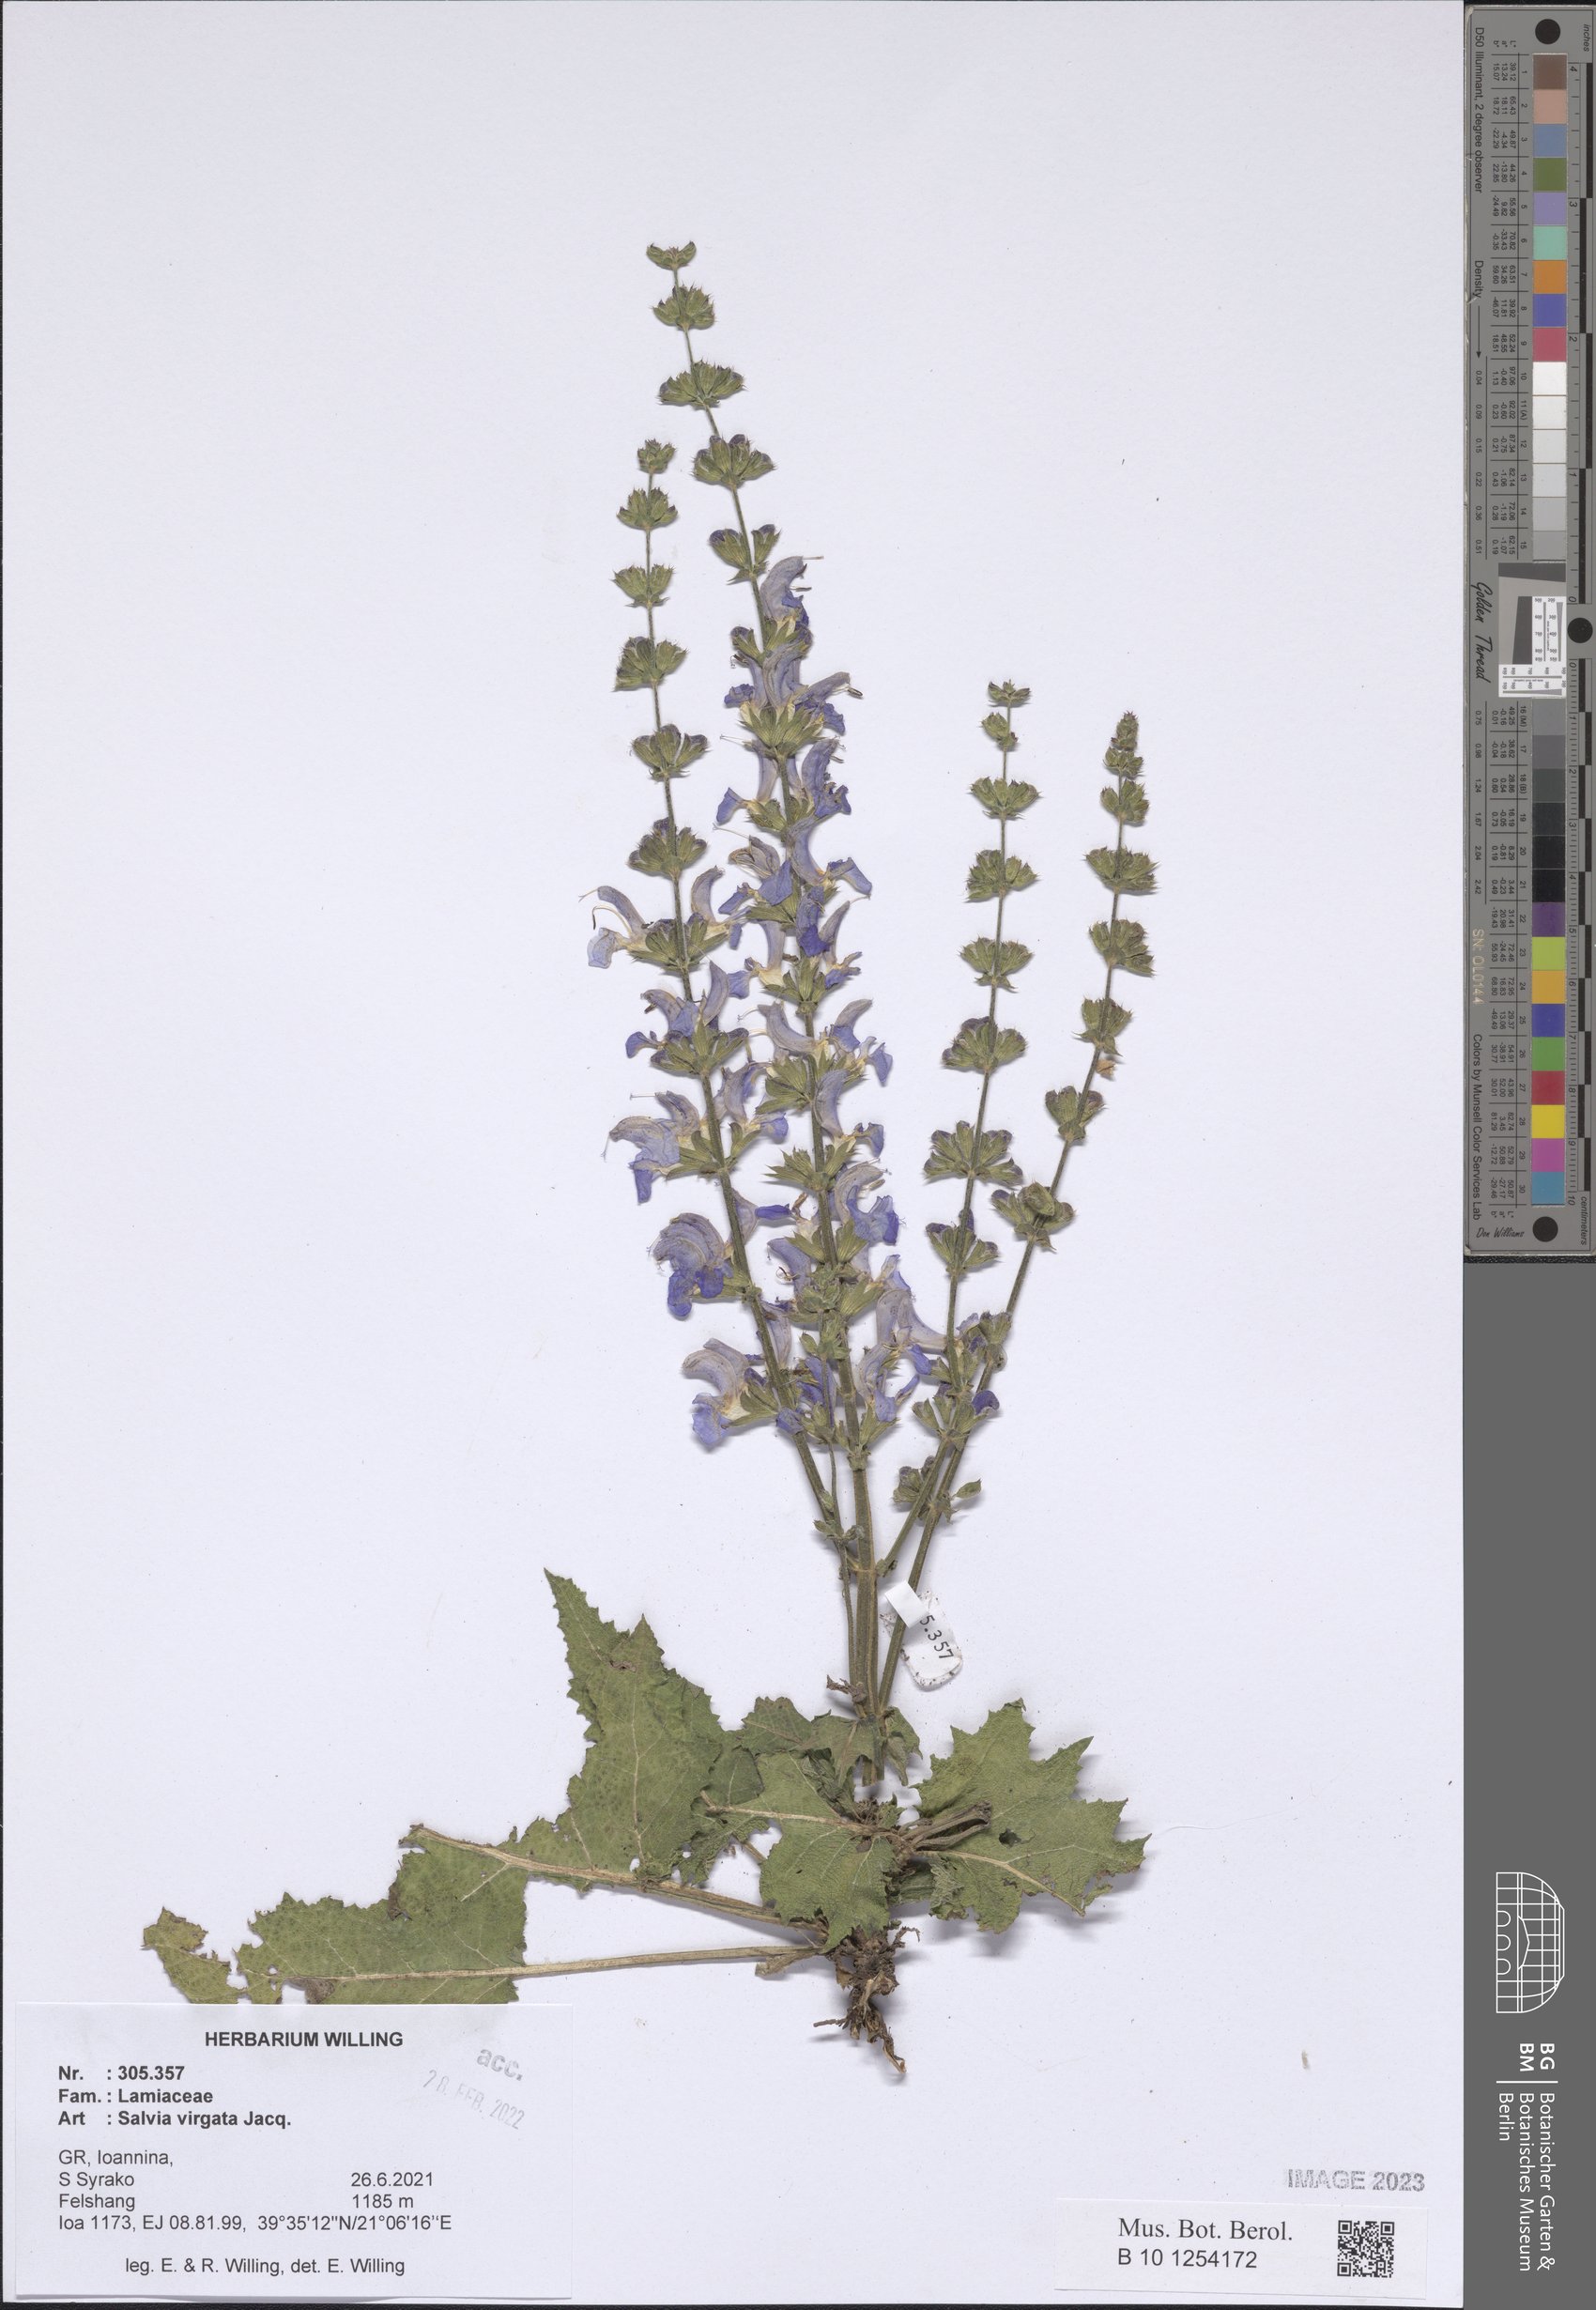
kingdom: Plantae
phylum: Tracheophyta
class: Magnoliopsida
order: Lamiales
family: Lamiaceae
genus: Salvia
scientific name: Salvia virgata
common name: Wand sage
